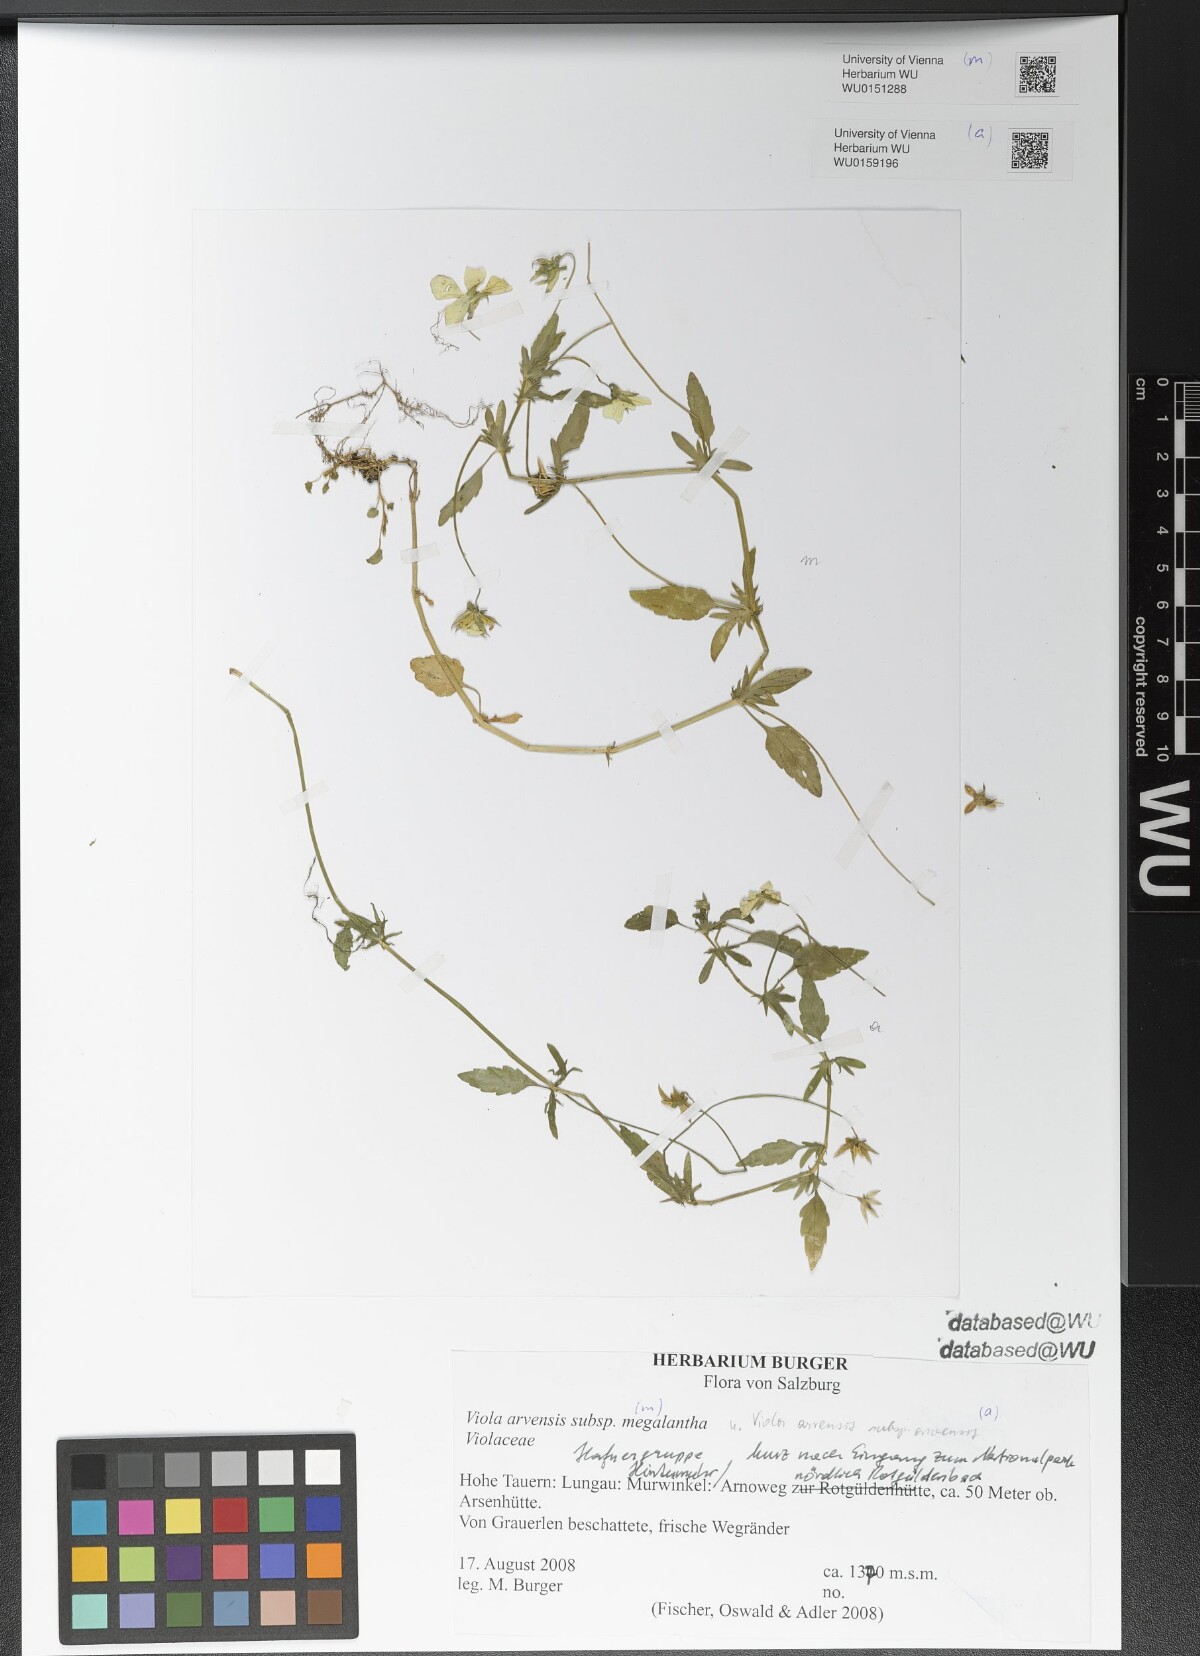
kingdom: Plantae
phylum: Tracheophyta
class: Magnoliopsida
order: Malpighiales
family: Violaceae
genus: Viola
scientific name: Viola arvensis
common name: Field pansy
